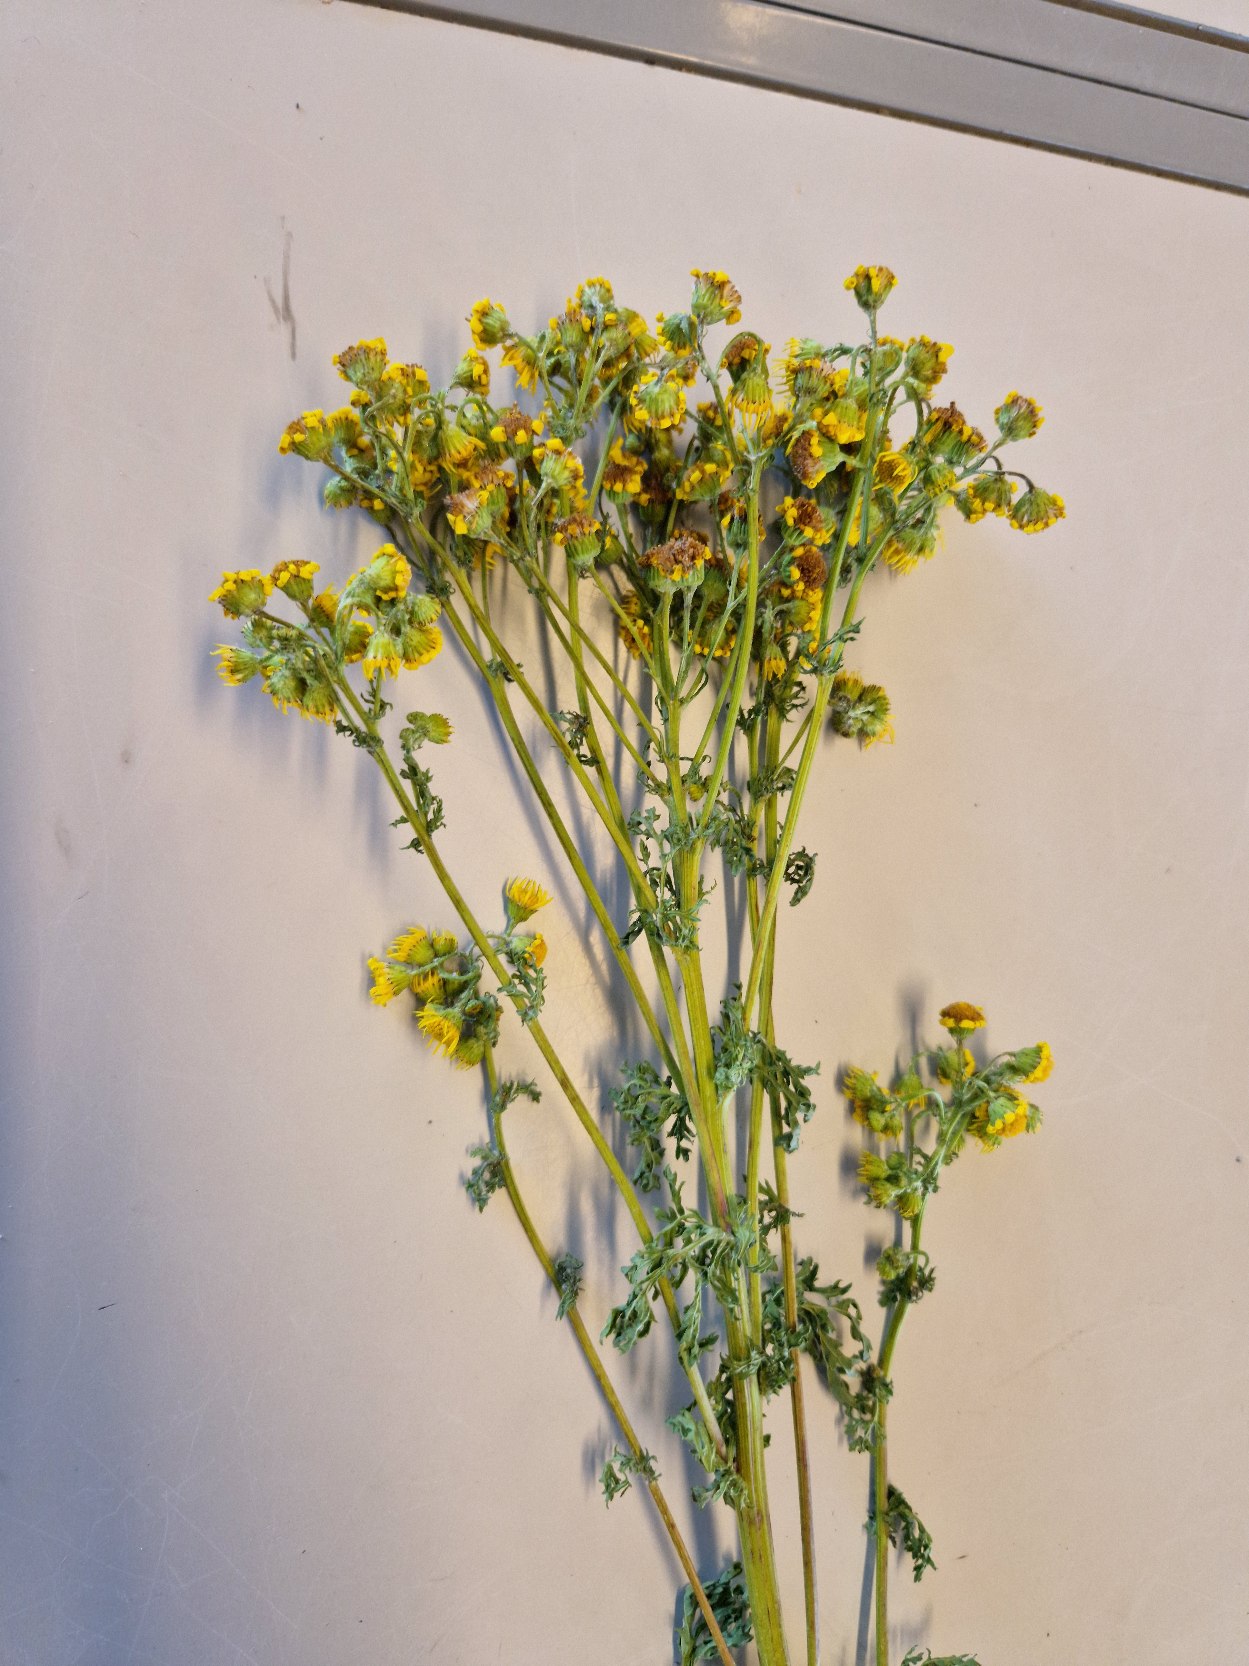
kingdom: Plantae
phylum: Tracheophyta
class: Magnoliopsida
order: Asterales
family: Asteraceae
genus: Jacobaea
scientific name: Jacobaea vulgaris
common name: Eng-brandbæger
